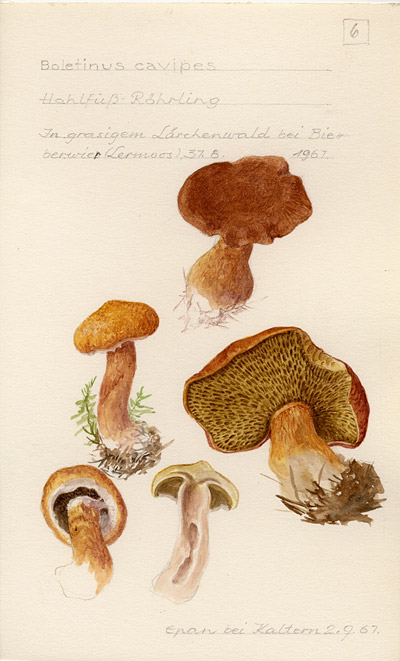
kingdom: Fungi
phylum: Basidiomycota
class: Agaricomycetes
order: Boletales
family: Suillaceae
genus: Suillus
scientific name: Suillus cavipes
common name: Hollow bolete
